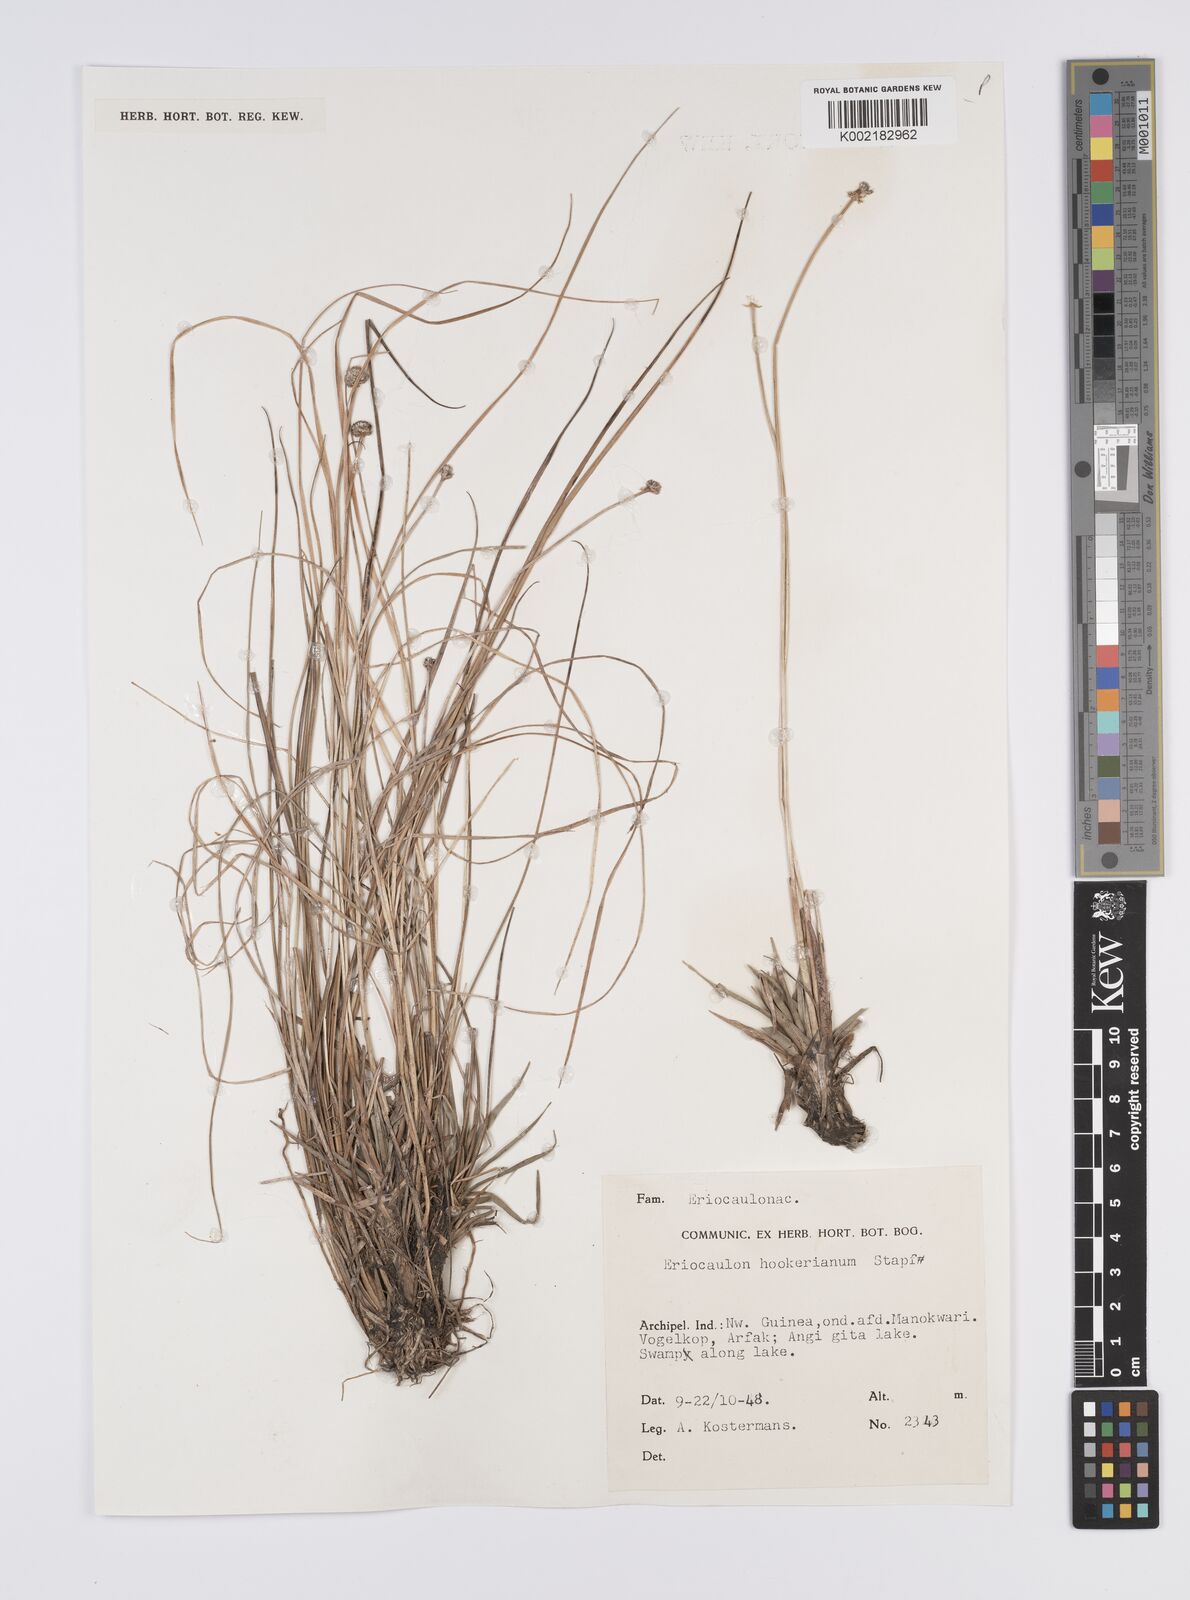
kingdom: Plantae
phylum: Tracheophyta
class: Liliopsida
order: Poales
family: Eriocaulaceae
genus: Eriocaulon
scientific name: Eriocaulon hookerianum
